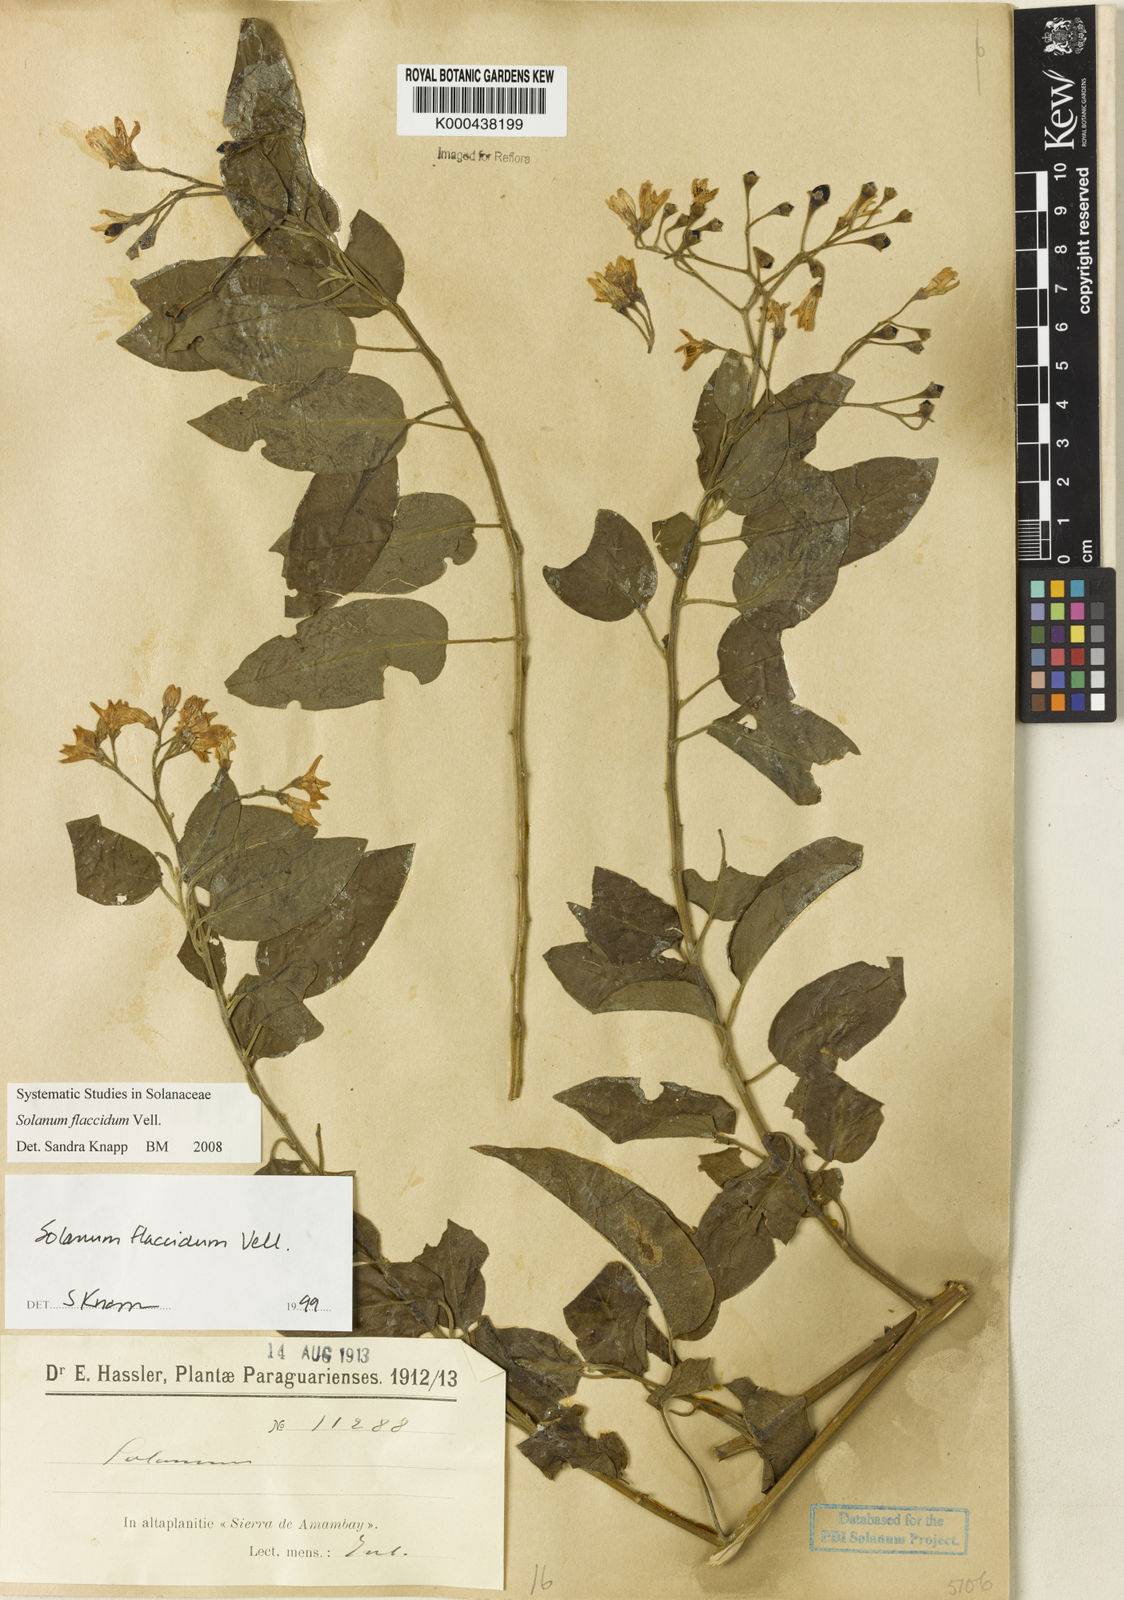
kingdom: Plantae
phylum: Tracheophyta
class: Magnoliopsida
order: Solanales
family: Solanaceae
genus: Solanum
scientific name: Solanum flaccidum
